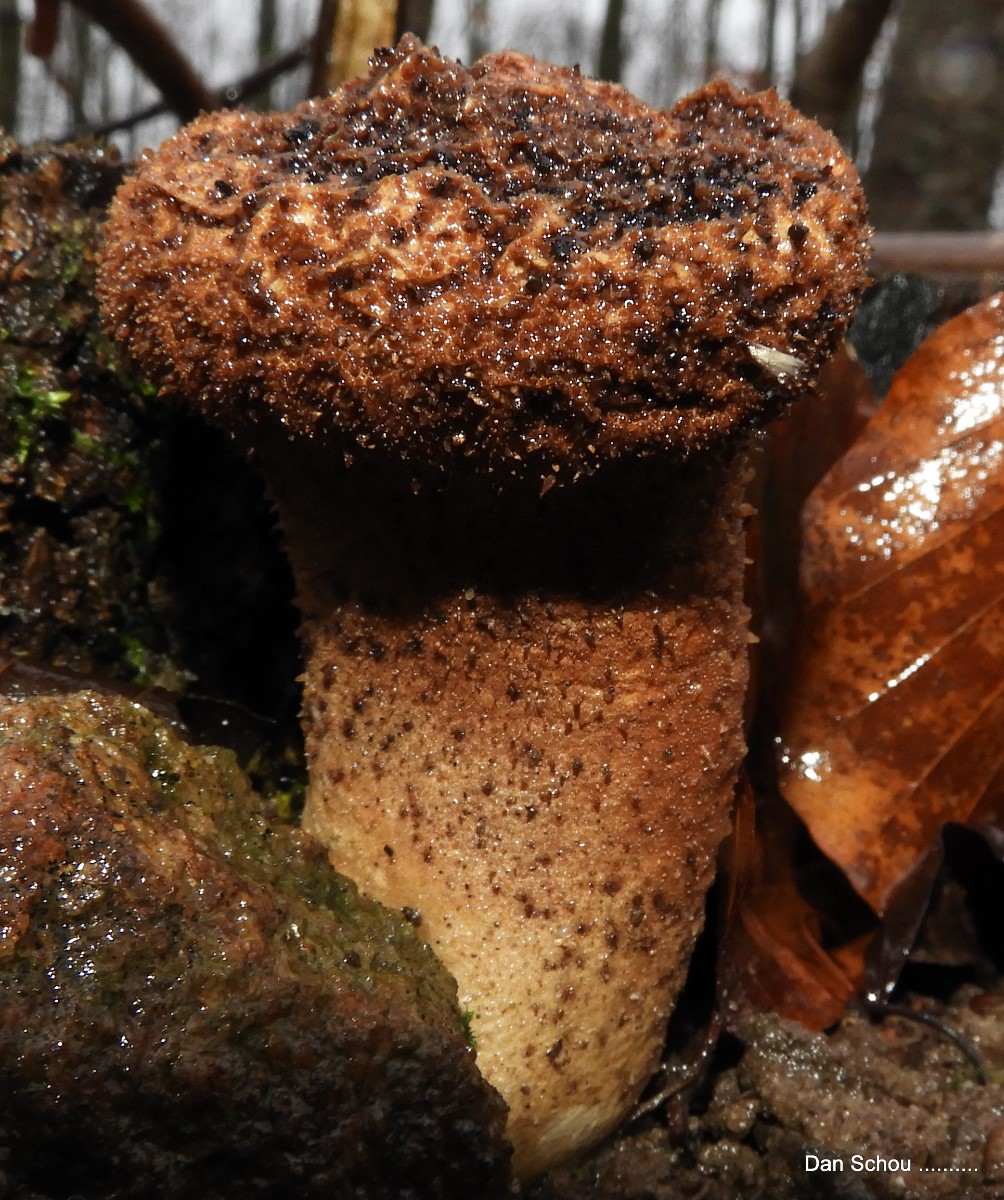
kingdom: Fungi
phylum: Basidiomycota
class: Agaricomycetes
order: Agaricales
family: Lycoperdaceae
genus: Lycoperdon
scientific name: Lycoperdon excipuliforme
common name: højstokket støvbold
